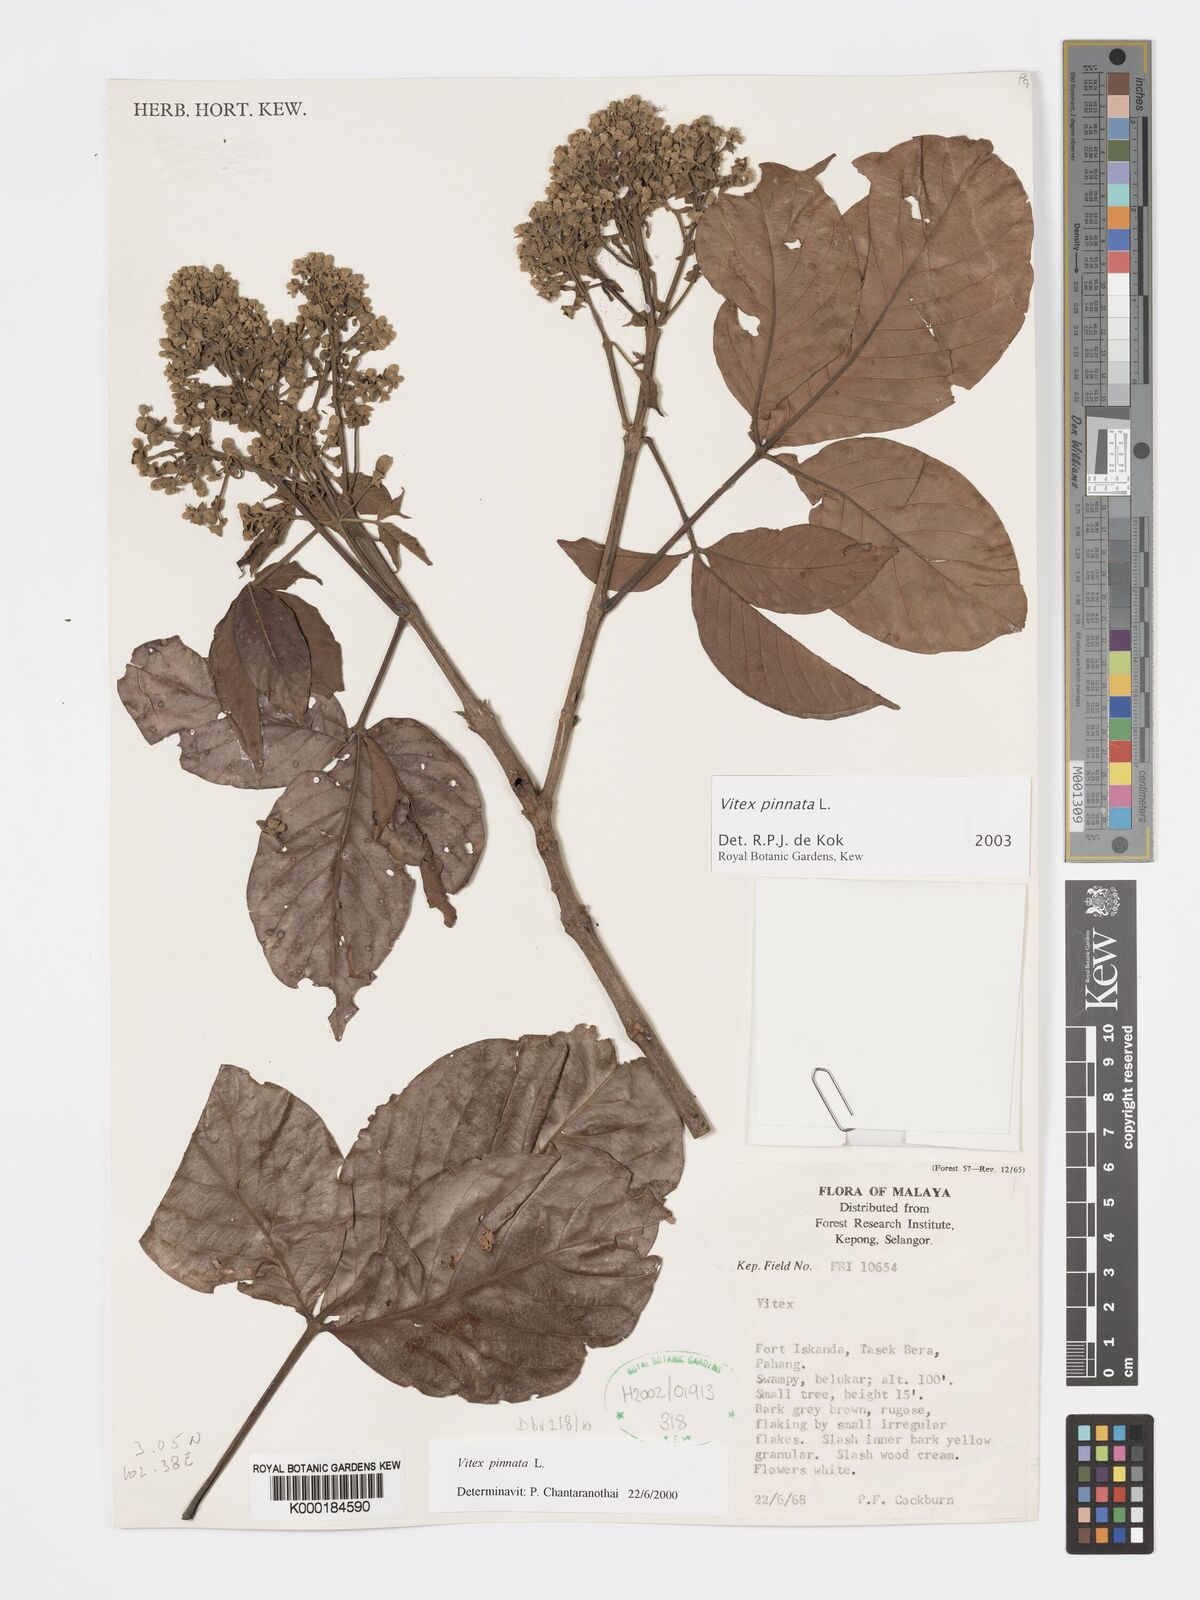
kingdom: Plantae
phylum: Tracheophyta
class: Magnoliopsida
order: Lamiales
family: Lamiaceae
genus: Vitex
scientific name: Vitex pinnata
